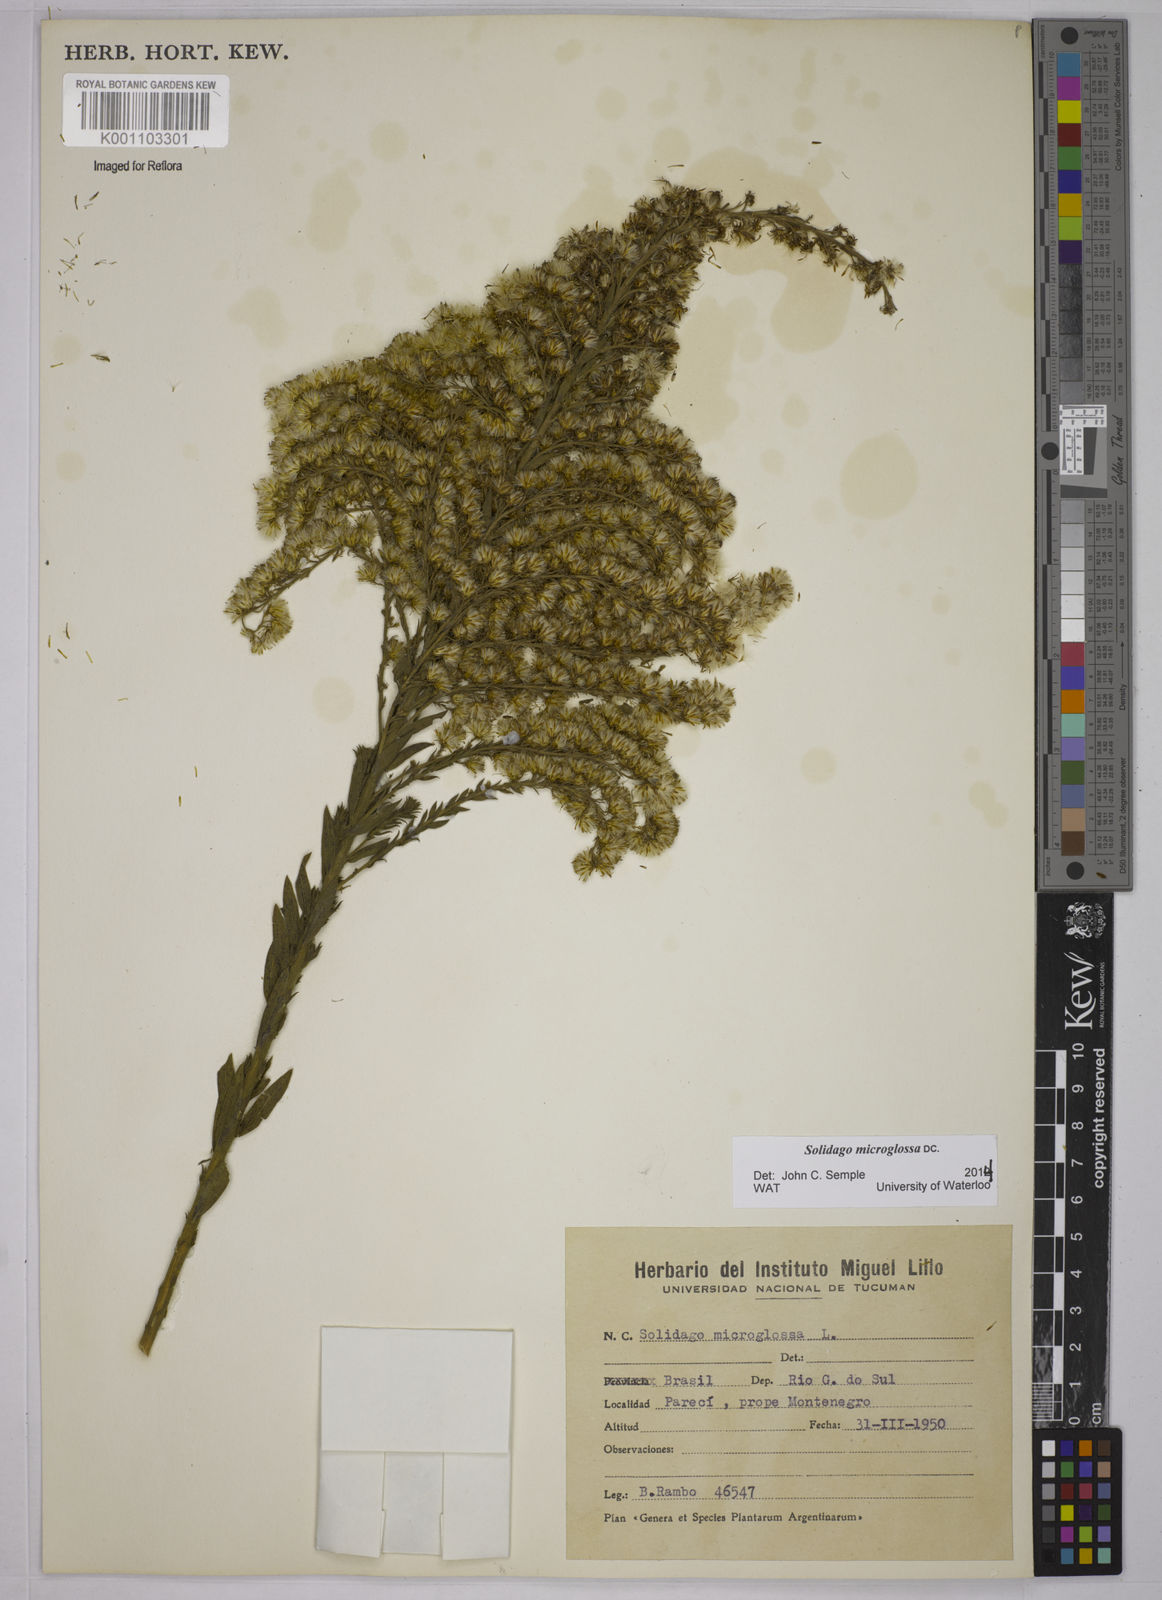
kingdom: Plantae
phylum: Tracheophyta
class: Magnoliopsida
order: Asterales
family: Asteraceae
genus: Solidago
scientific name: Solidago chilensis
